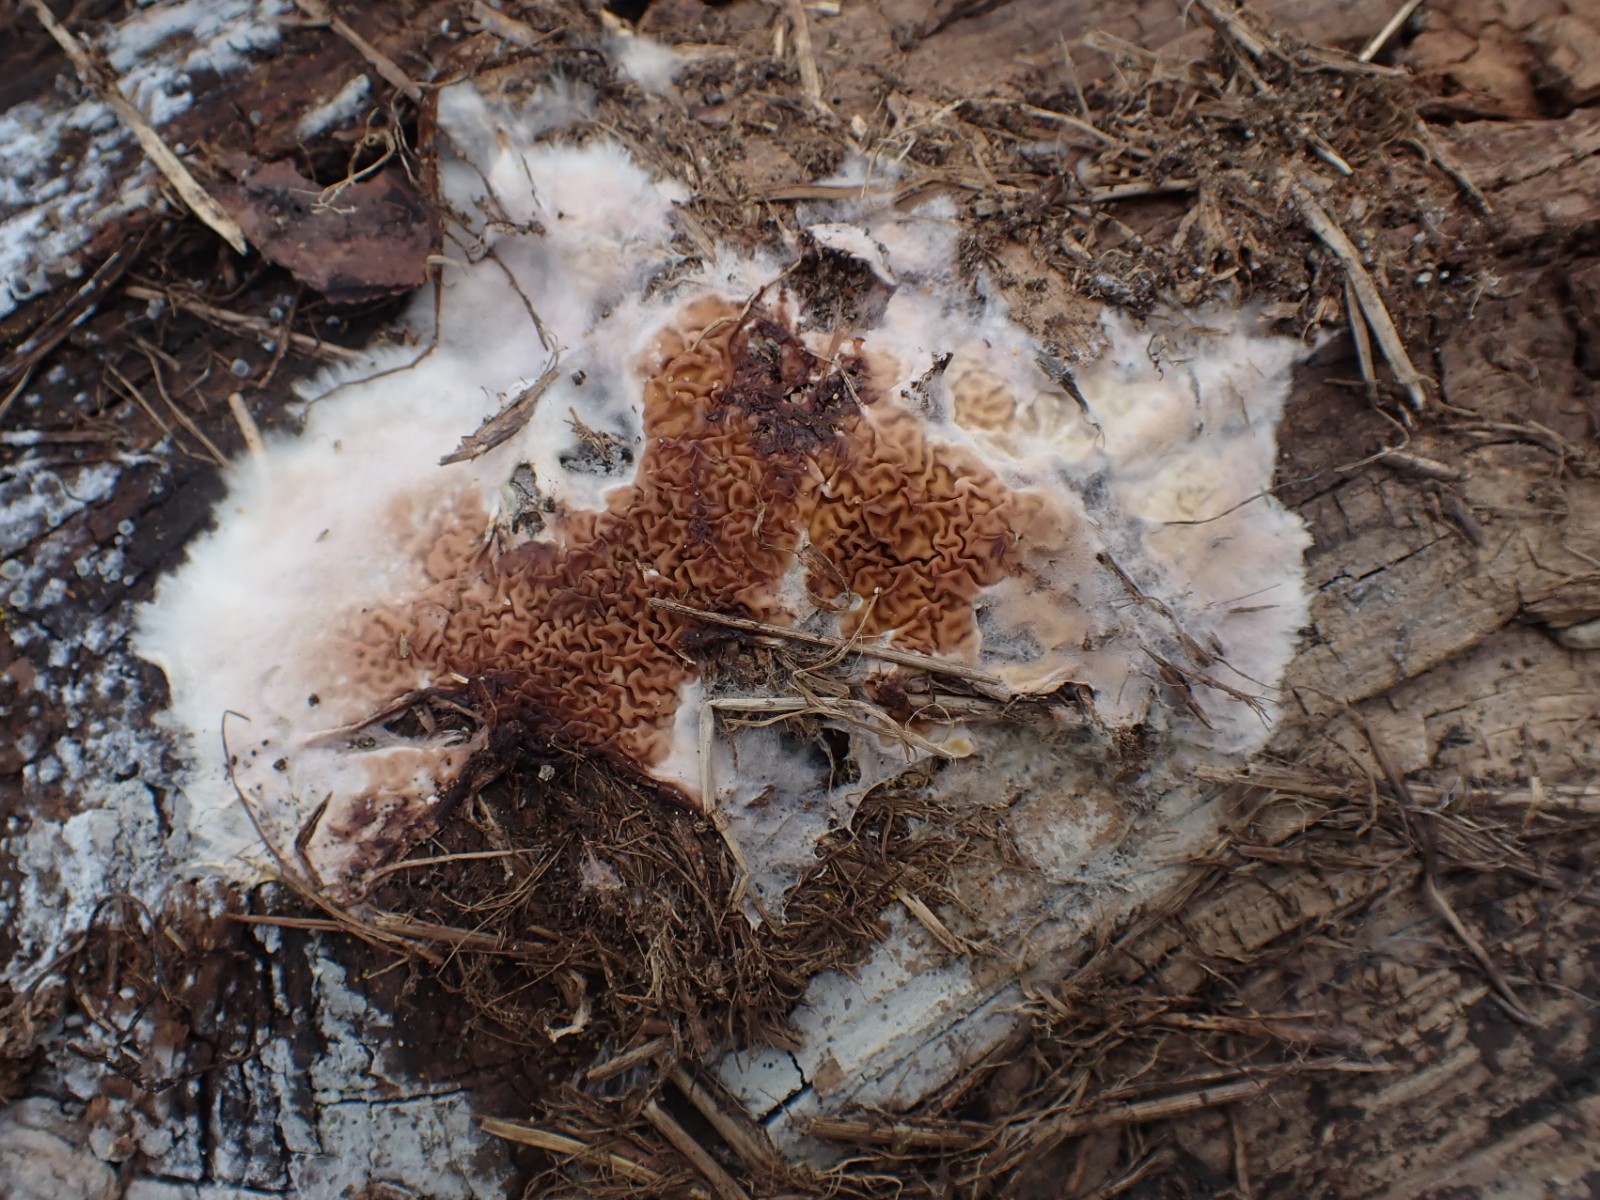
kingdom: Fungi
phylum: Basidiomycota
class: Agaricomycetes
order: Boletales
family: Serpulaceae
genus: Serpula
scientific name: Serpula himantioides
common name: tyndkødet hussvamp
